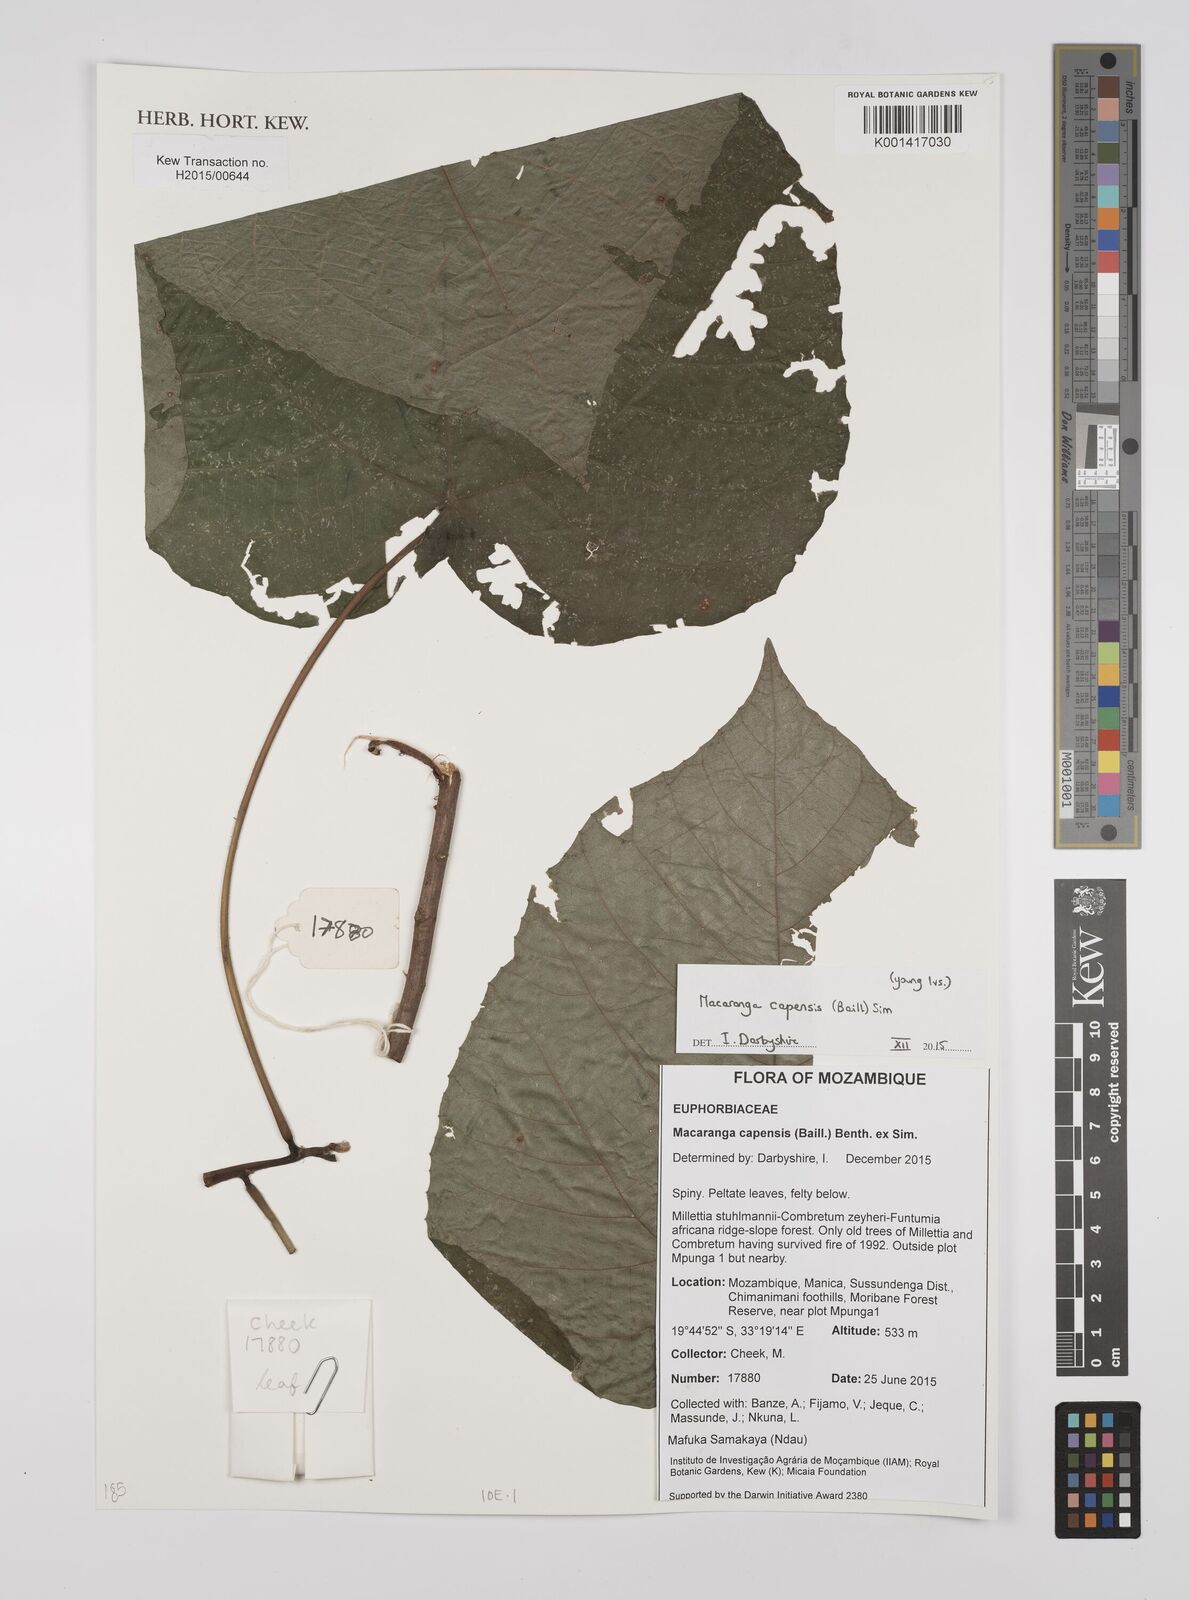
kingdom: Plantae
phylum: Tracheophyta
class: Magnoliopsida
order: Malpighiales
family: Euphorbiaceae
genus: Macaranga
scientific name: Macaranga capensis
